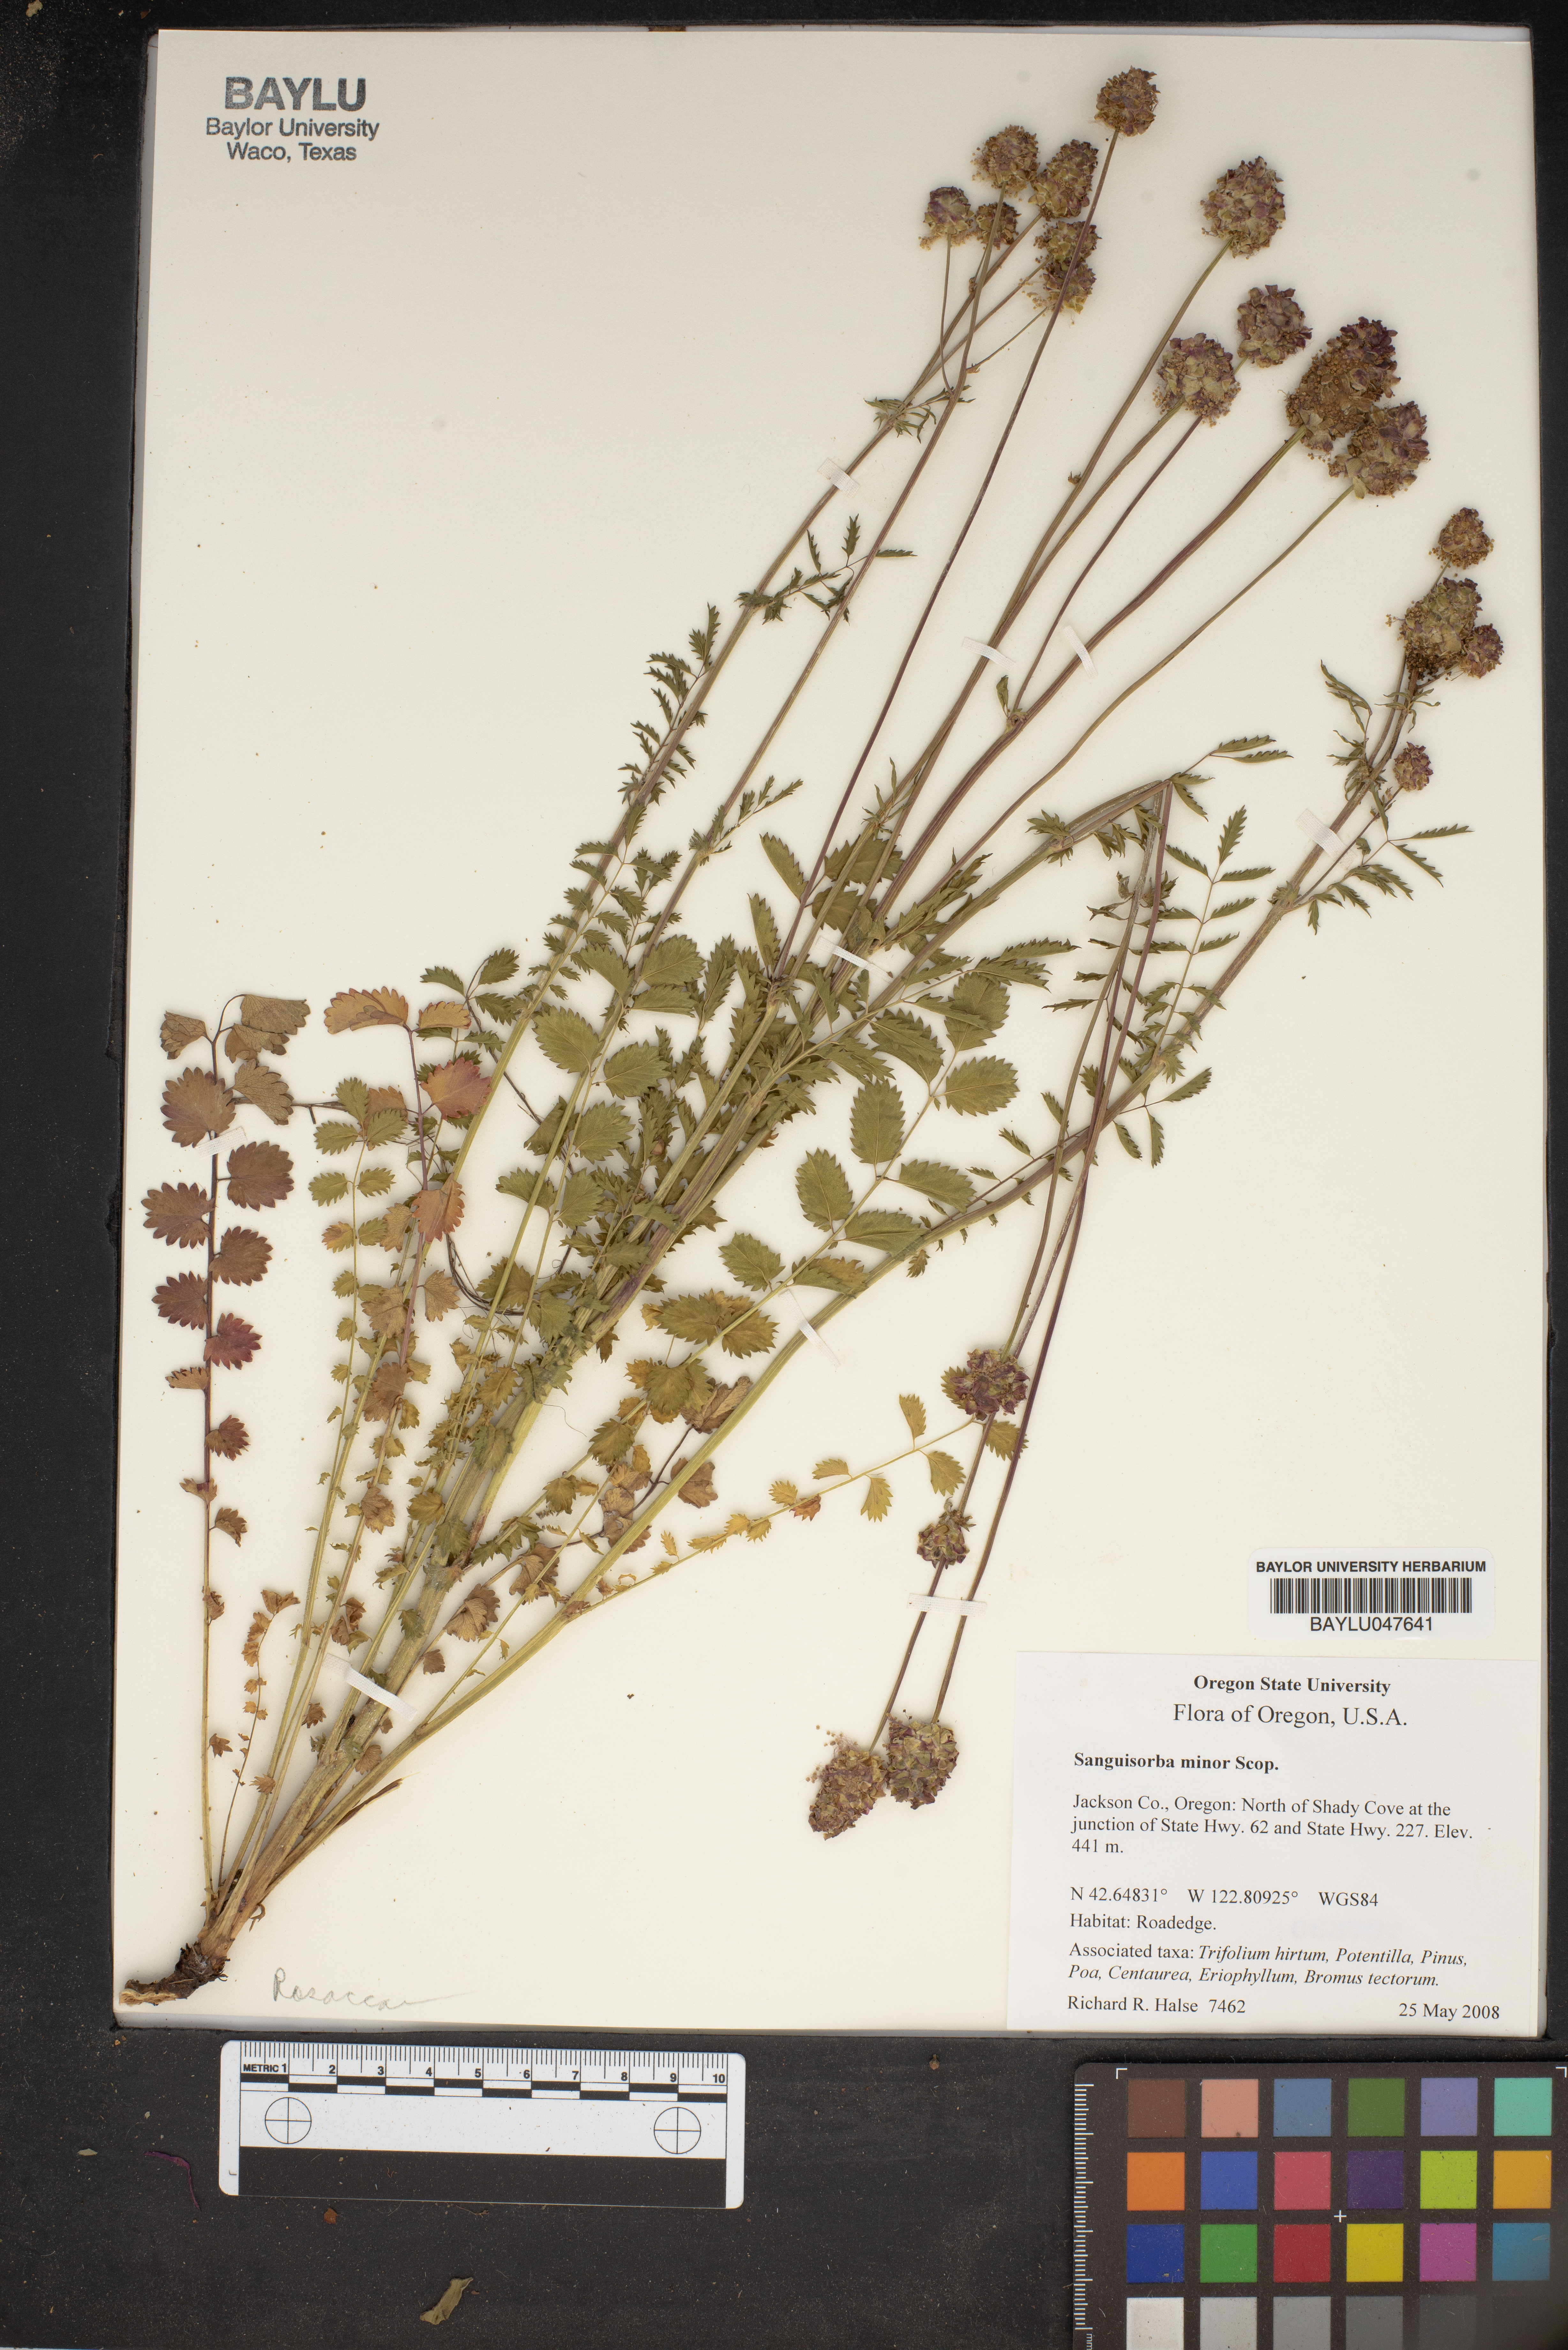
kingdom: Plantae
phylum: Tracheophyta
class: Magnoliopsida
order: Rosales
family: Rosaceae
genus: Poterium
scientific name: Poterium sanguisorba
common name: Salad burnet
